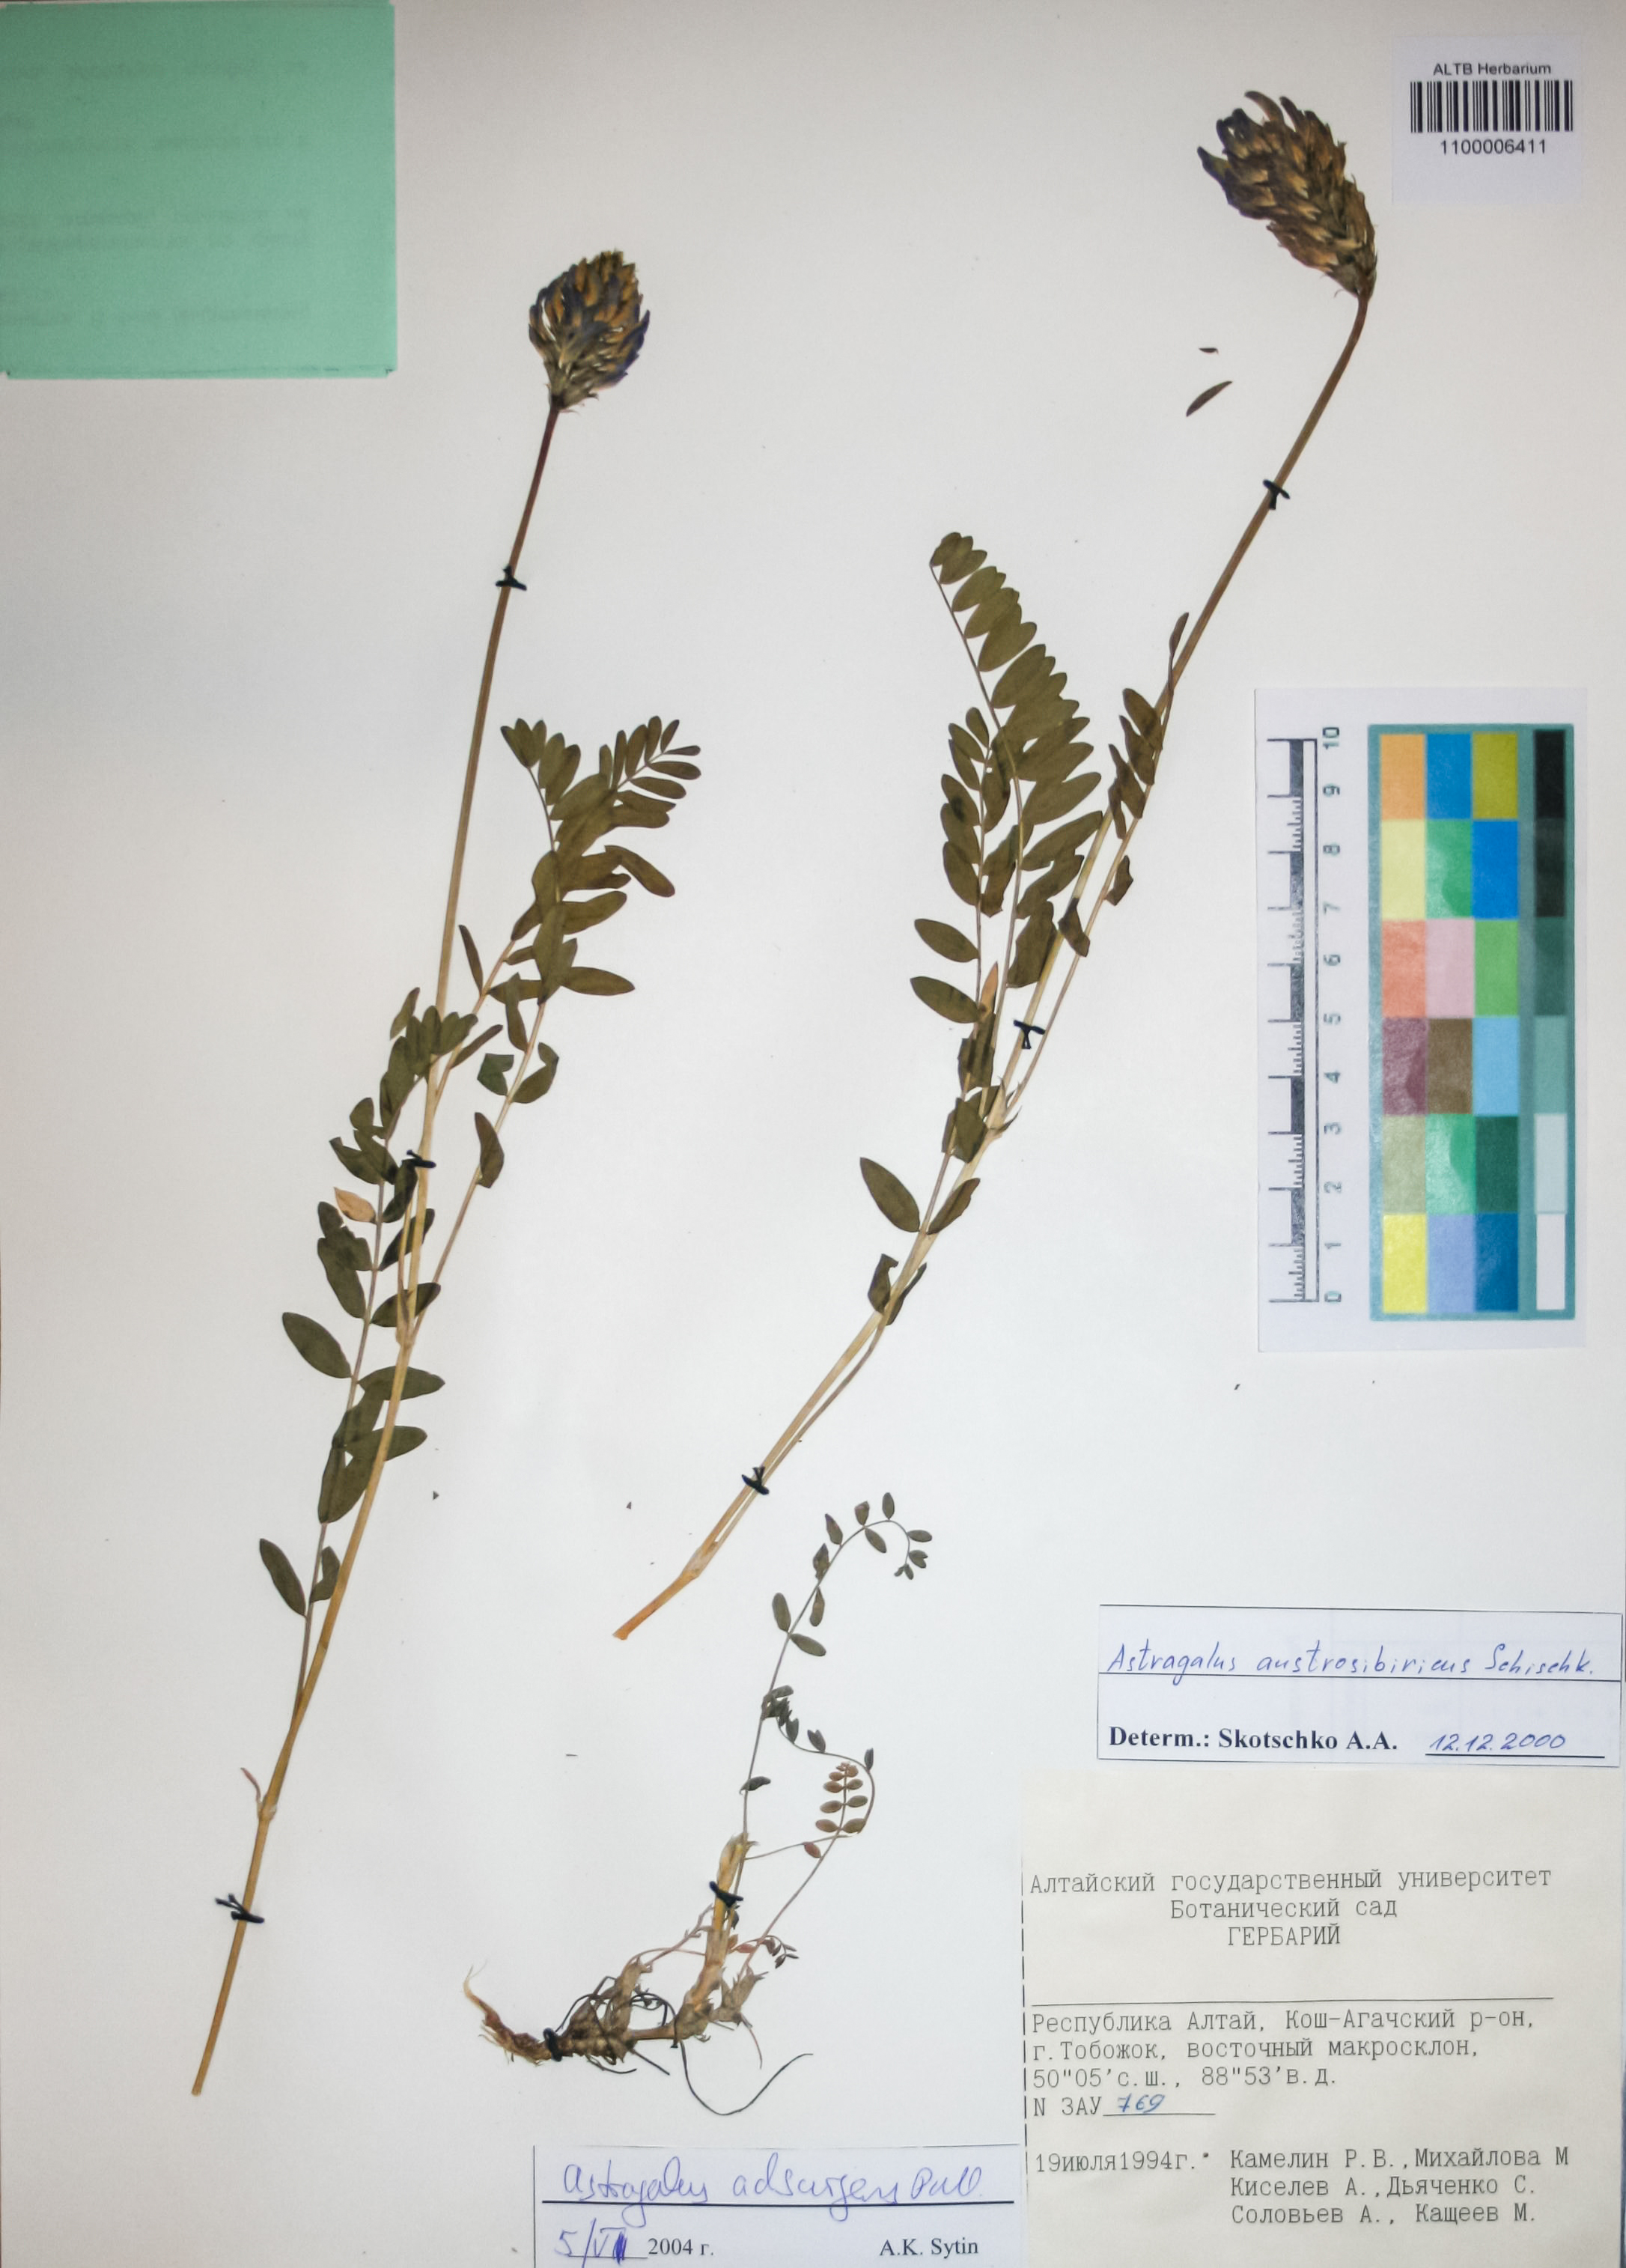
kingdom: Plantae
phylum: Tracheophyta
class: Magnoliopsida
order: Fabales
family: Fabaceae
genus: Astragalus
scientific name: Astragalus laxmannii
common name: Laxmann's milk-vetch
